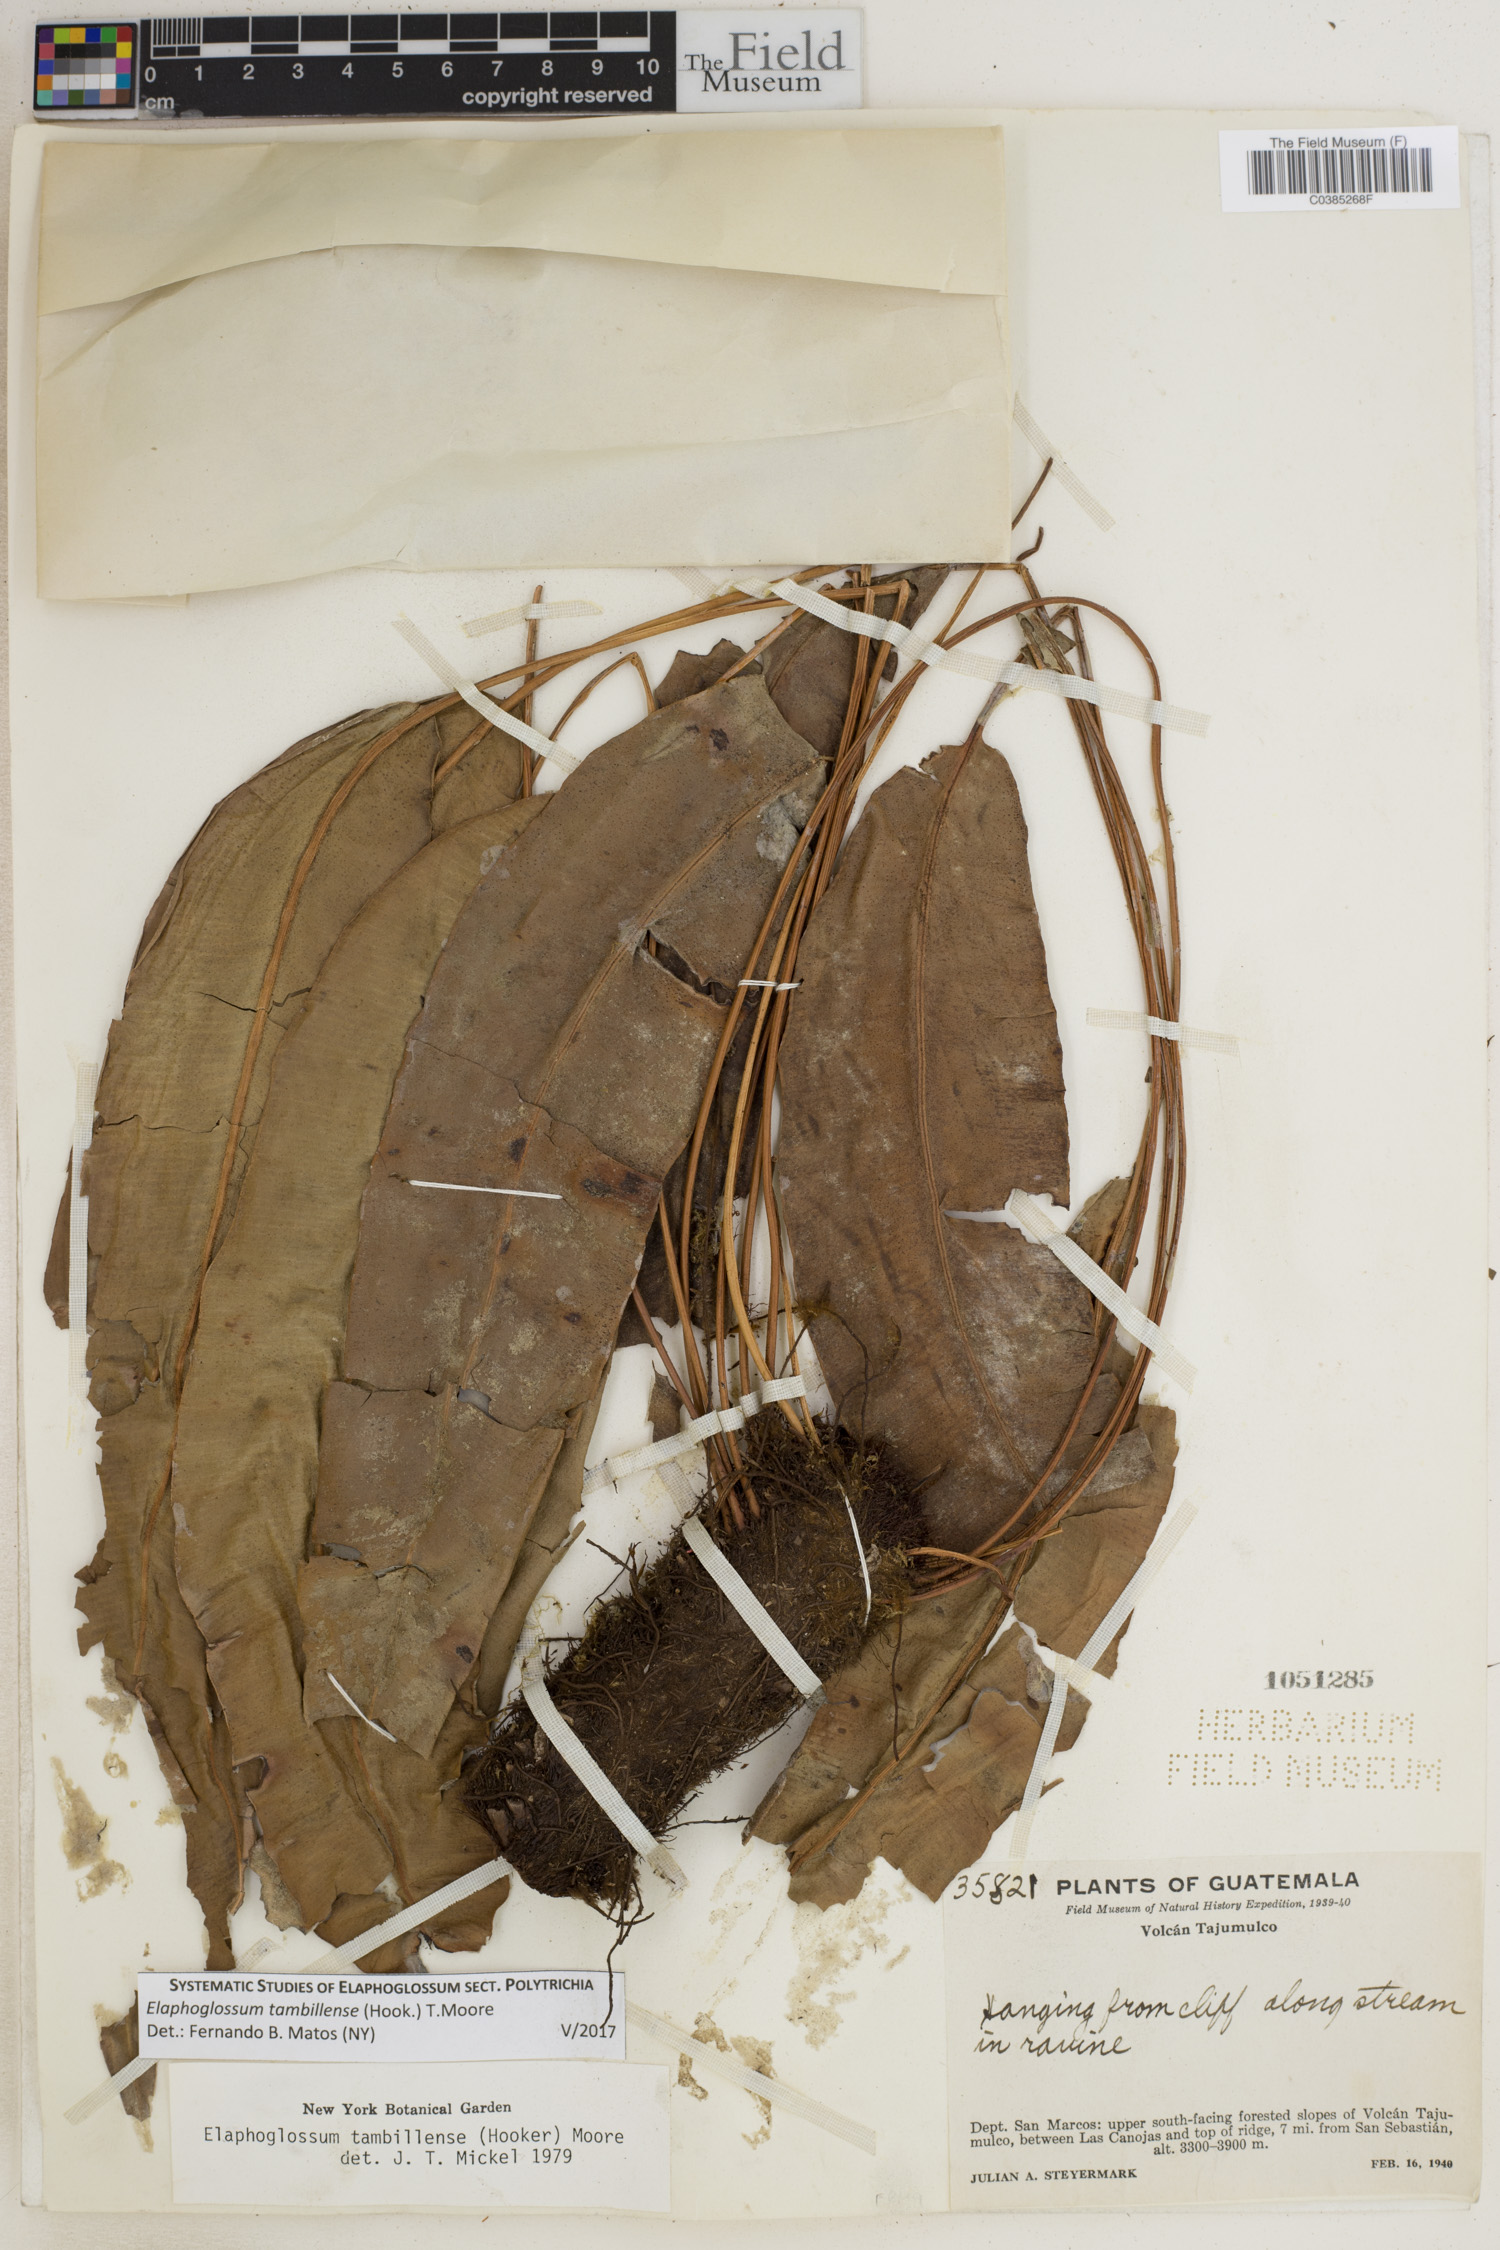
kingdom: Plantae
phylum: Tracheophyta
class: Polypodiopsida
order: Polypodiales
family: Dryopteridaceae
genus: Elaphoglossum
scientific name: Elaphoglossum tambillense
